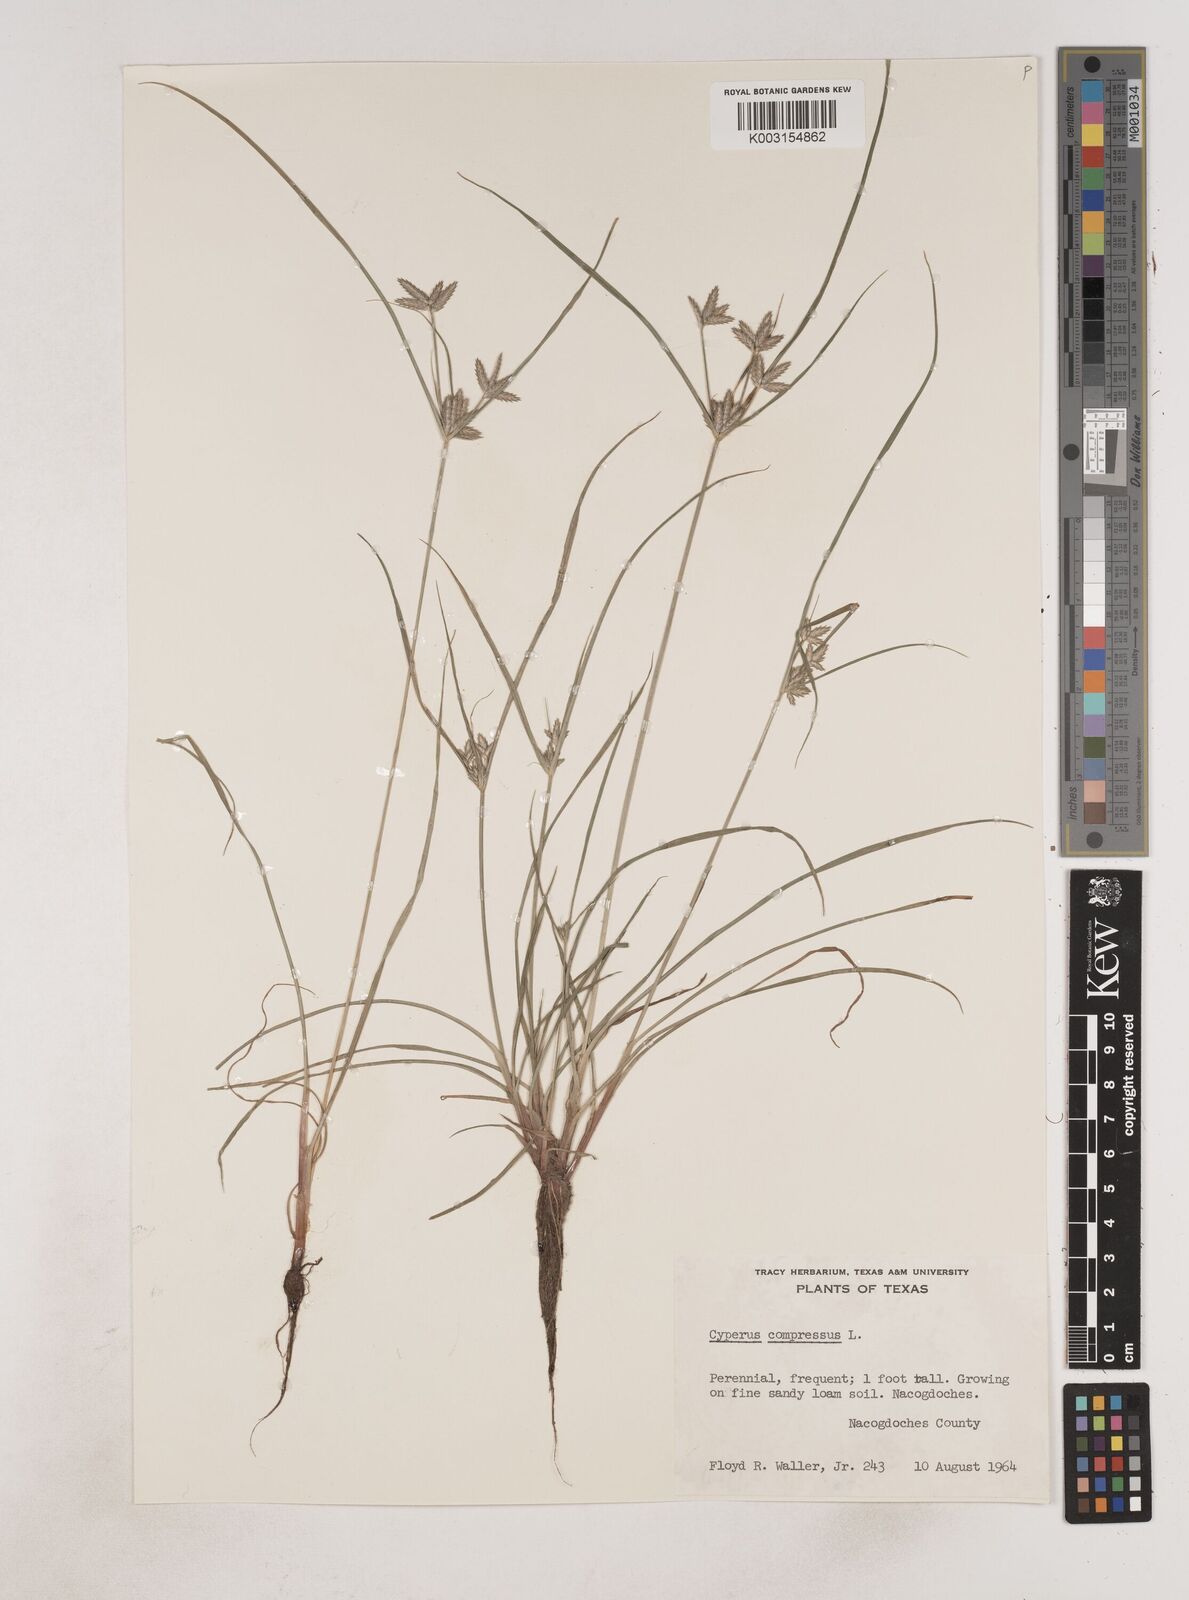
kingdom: Plantae
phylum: Tracheophyta
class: Liliopsida
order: Poales
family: Cyperaceae
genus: Cyperus
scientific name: Cyperus compressus
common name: Poorland flatsedge
